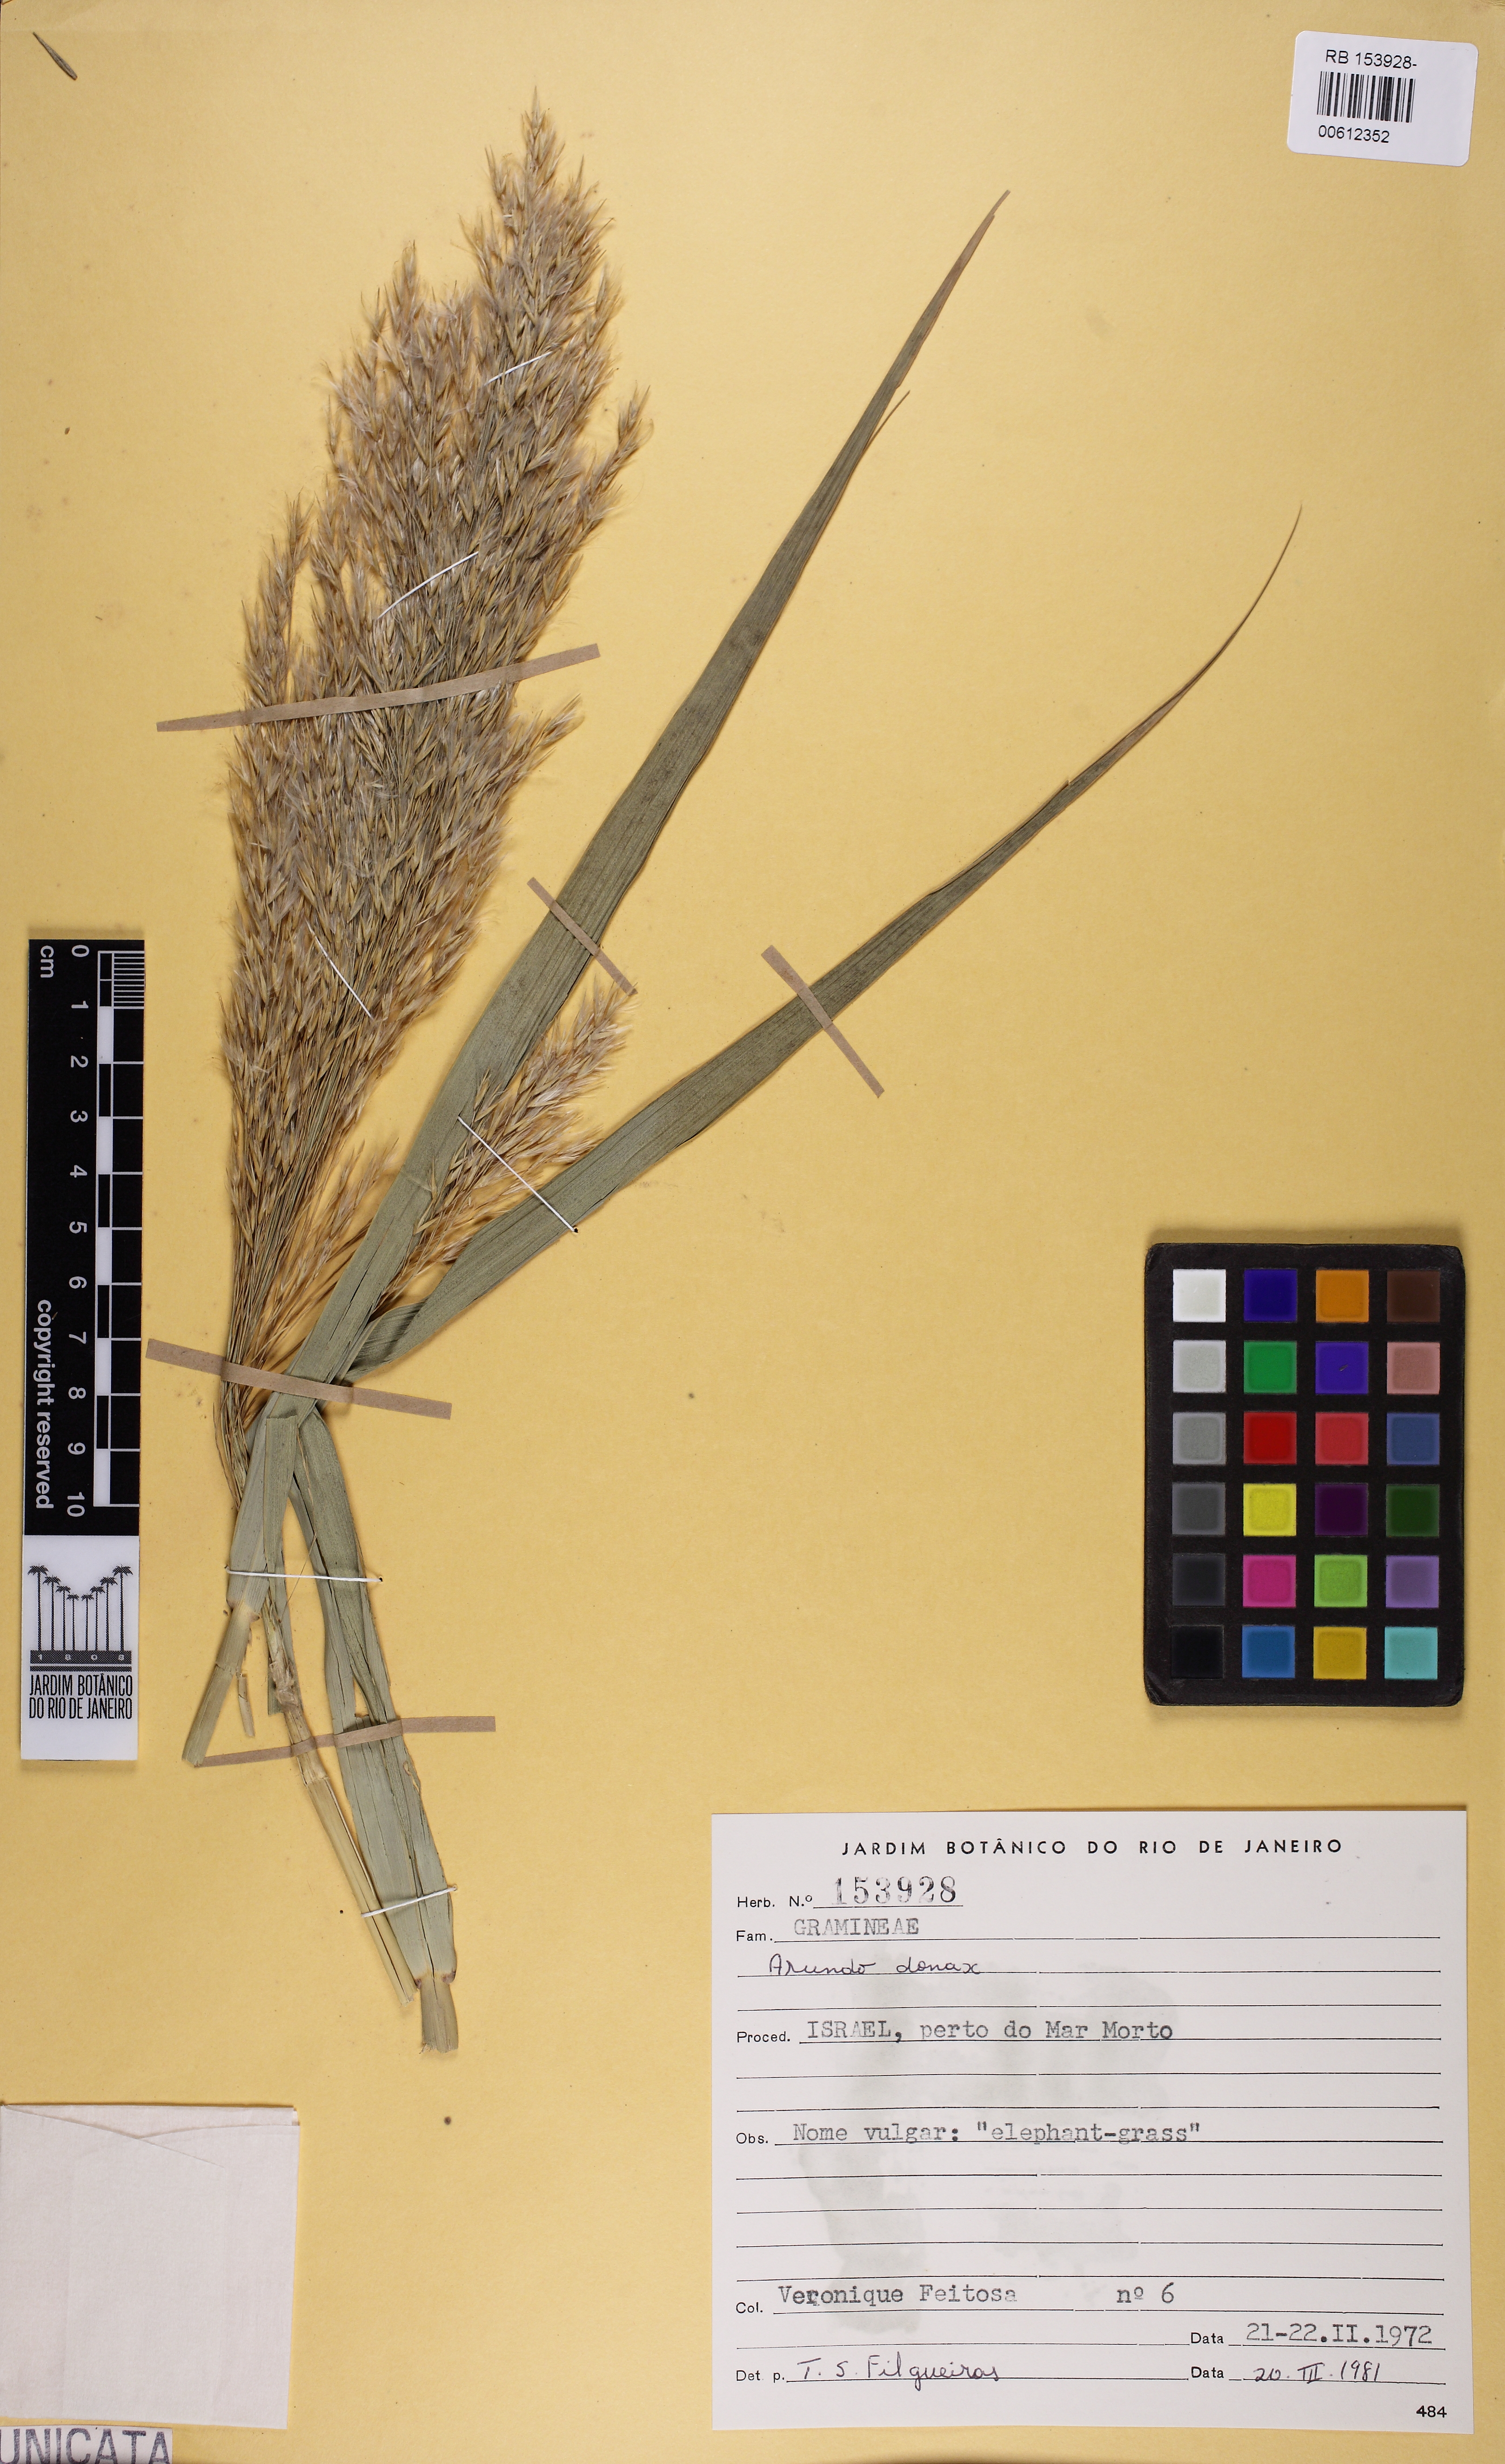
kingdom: Plantae
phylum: Tracheophyta
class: Liliopsida
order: Poales
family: Poaceae
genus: Arundo
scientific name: Arundo donax
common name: Giant reed
